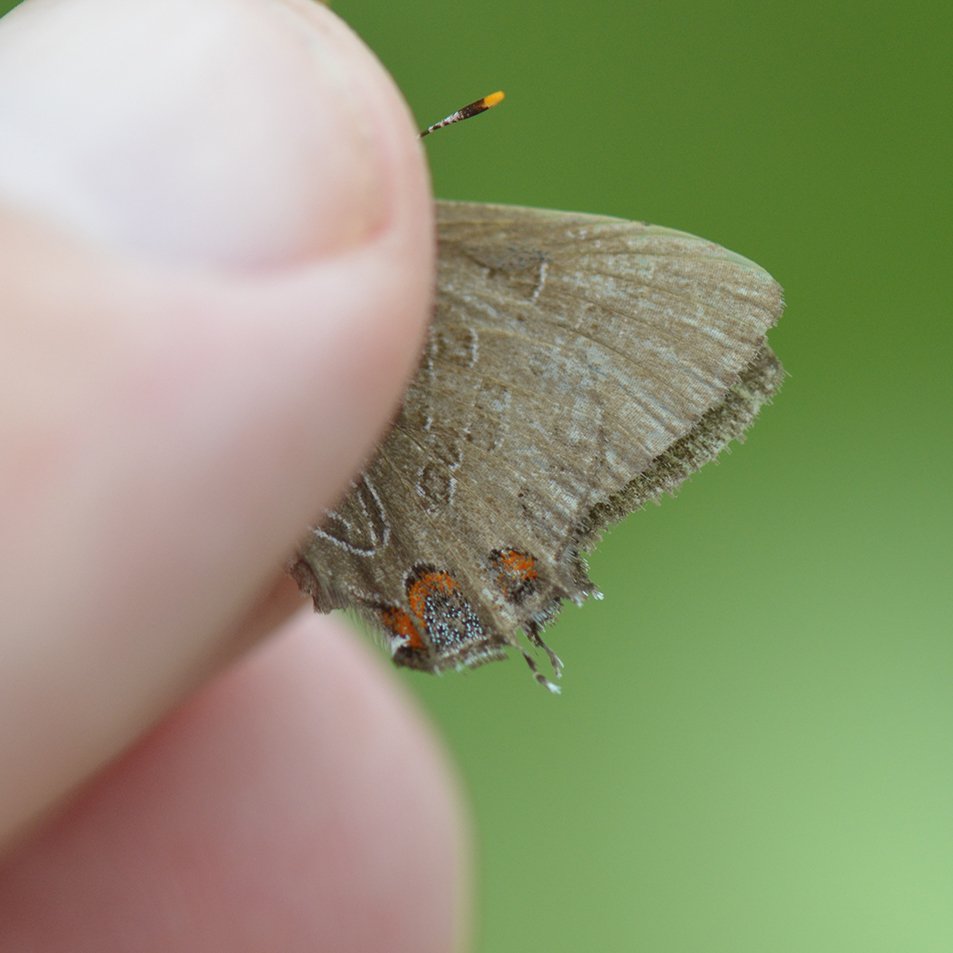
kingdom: Animalia
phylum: Arthropoda
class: Insecta
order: Lepidoptera
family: Lycaenidae
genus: Satyrium
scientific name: Satyrium liparops
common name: Striped Hairstreak
